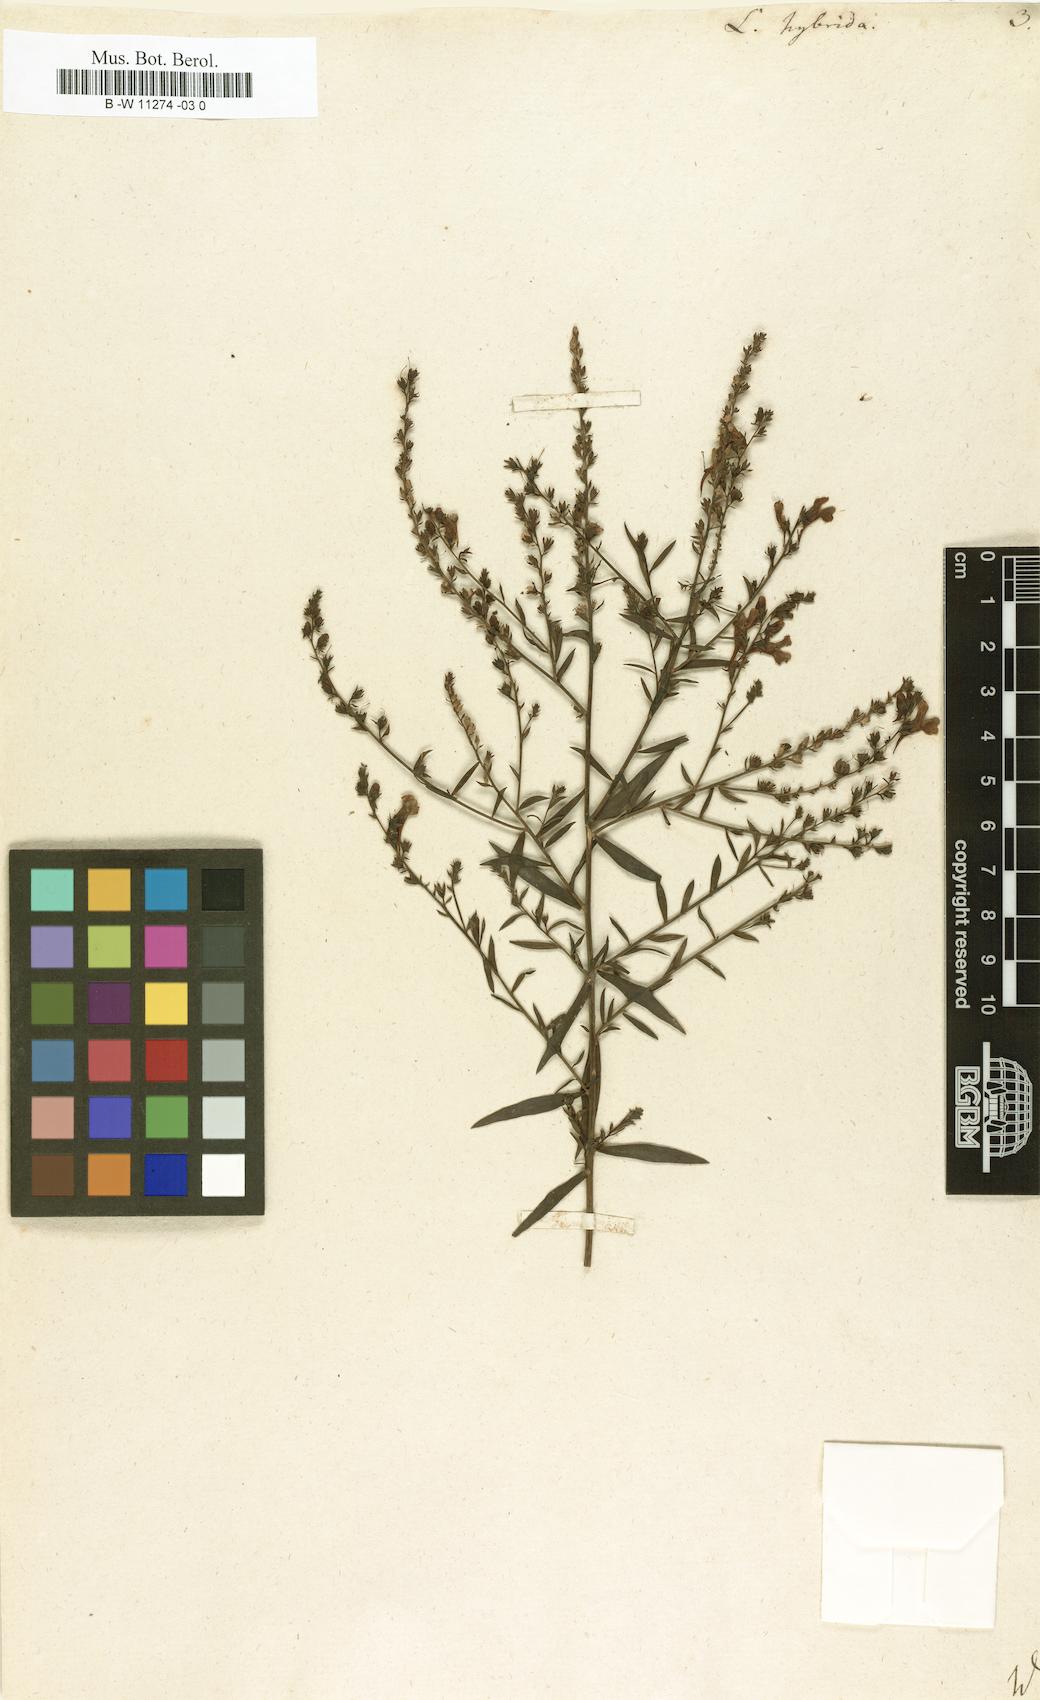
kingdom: Plantae
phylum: Tracheophyta
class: Magnoliopsida
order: Lamiales
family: Plantaginaceae
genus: Linaria
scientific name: Linaria hybrida
